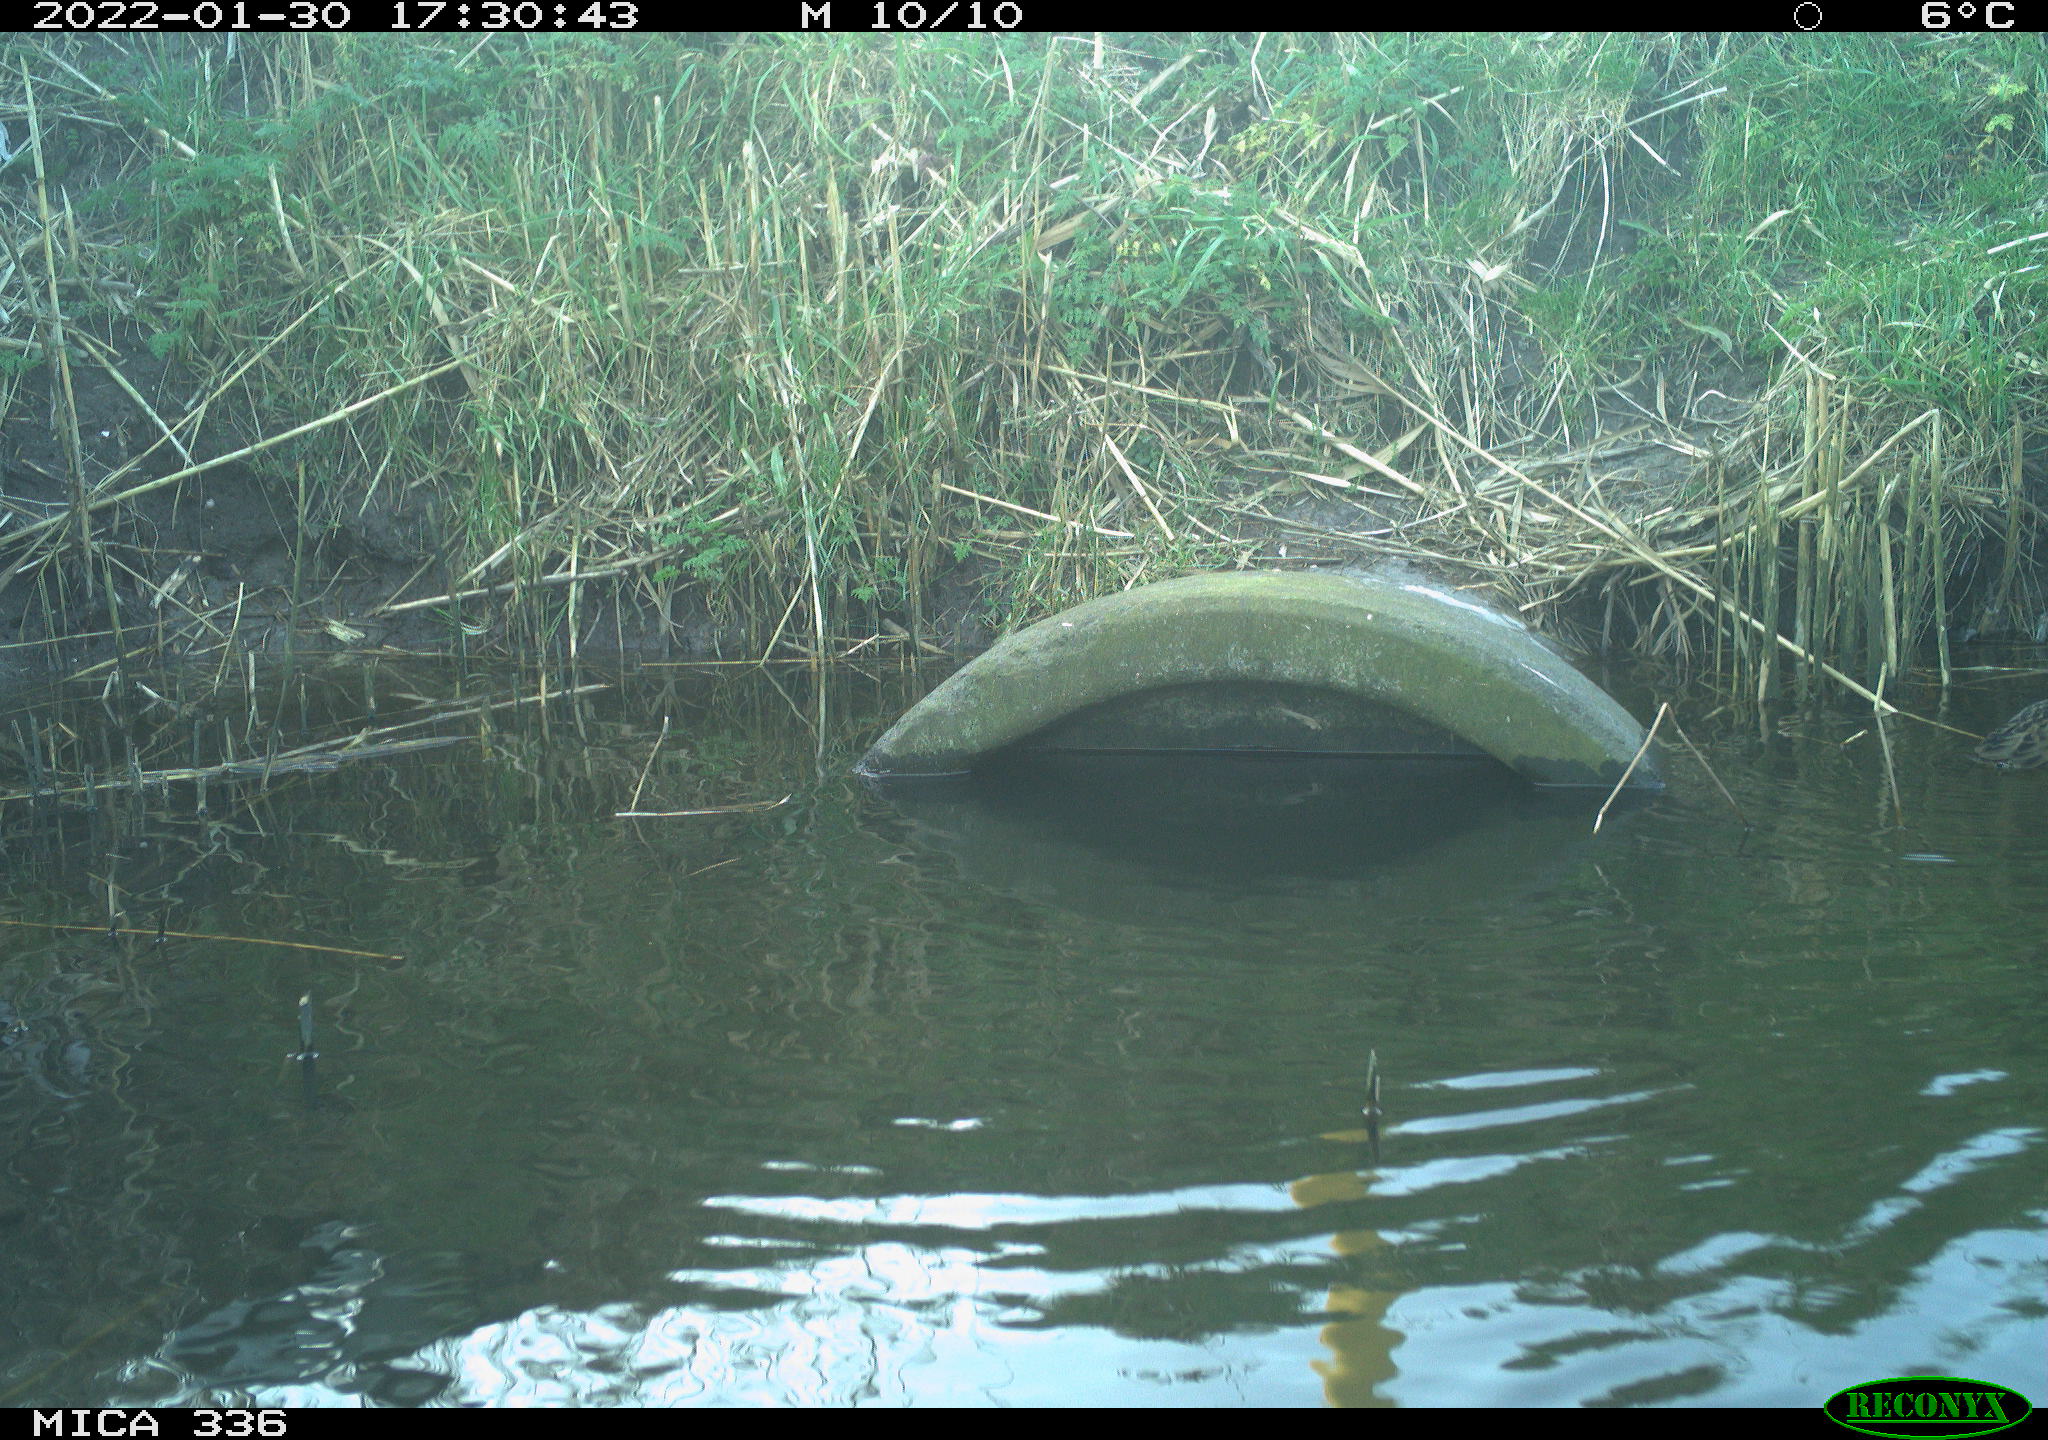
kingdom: Animalia
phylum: Chordata
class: Aves
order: Gruiformes
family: Rallidae
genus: Gallinula
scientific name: Gallinula chloropus
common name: Common moorhen
